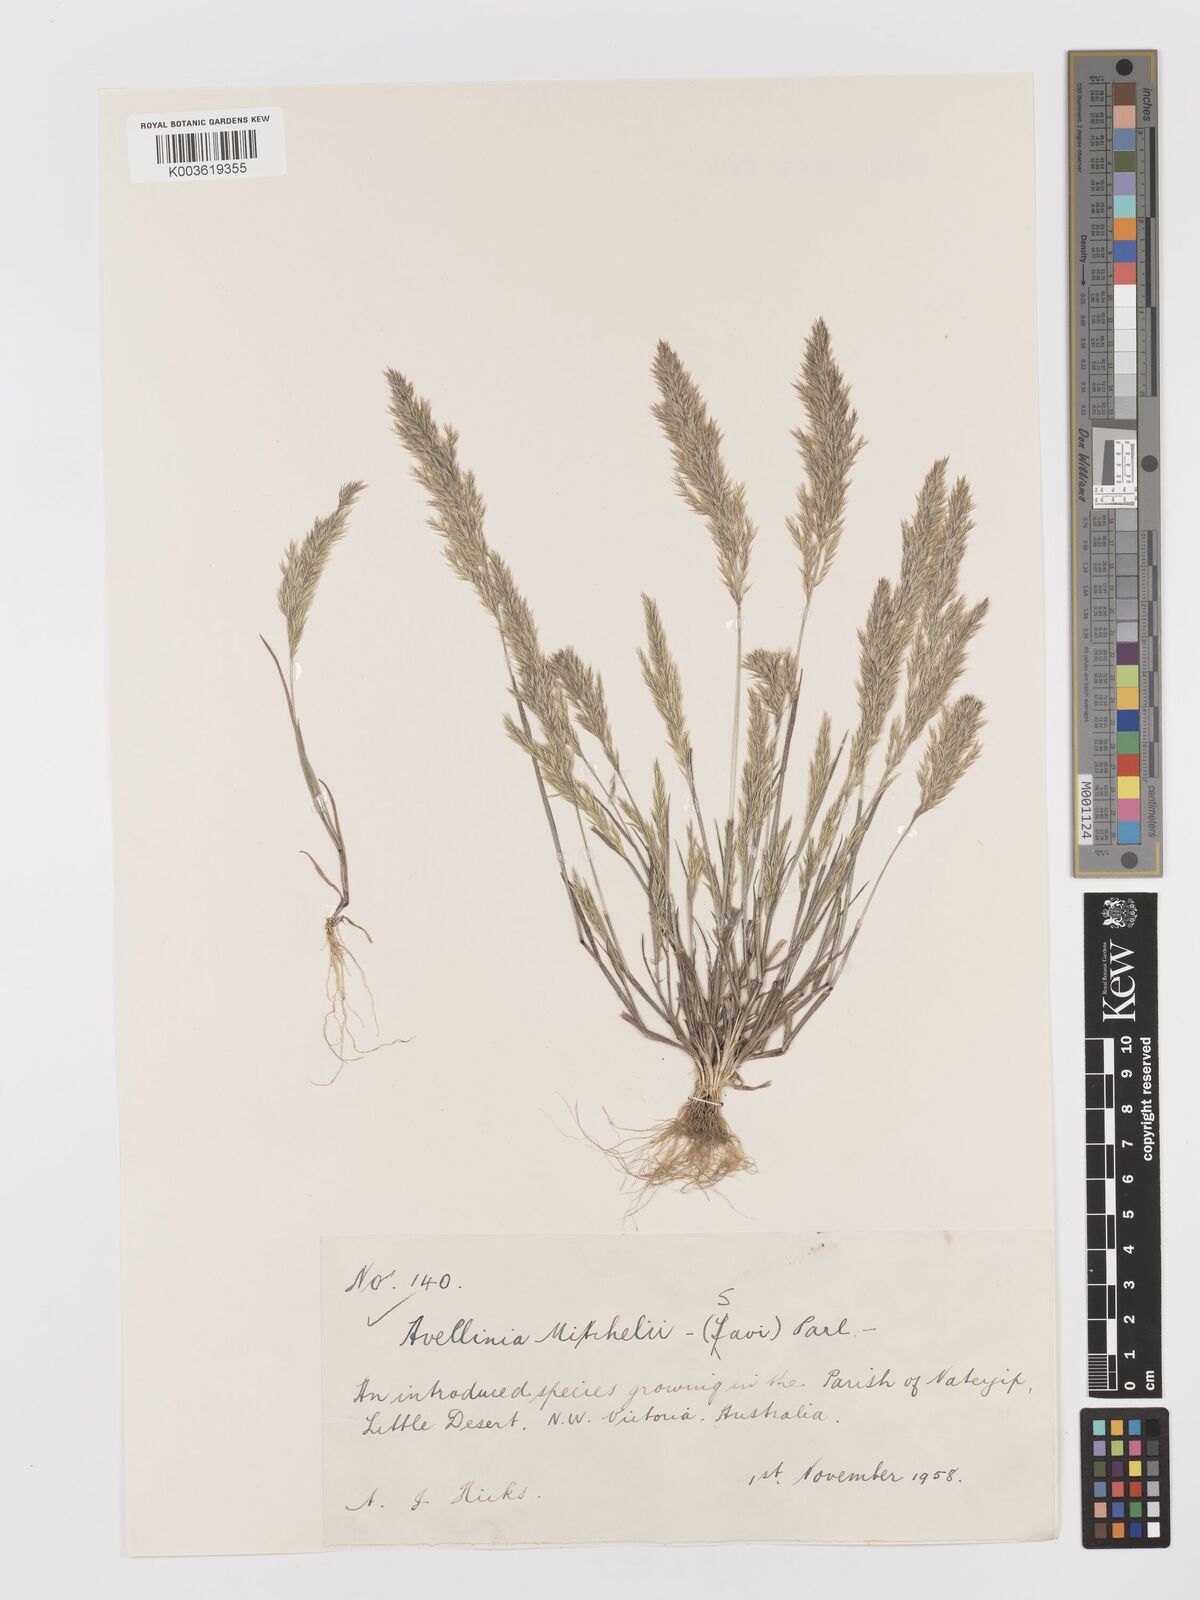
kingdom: Plantae
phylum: Tracheophyta
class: Liliopsida
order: Poales
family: Poaceae
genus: Rostraria
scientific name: Rostraria
